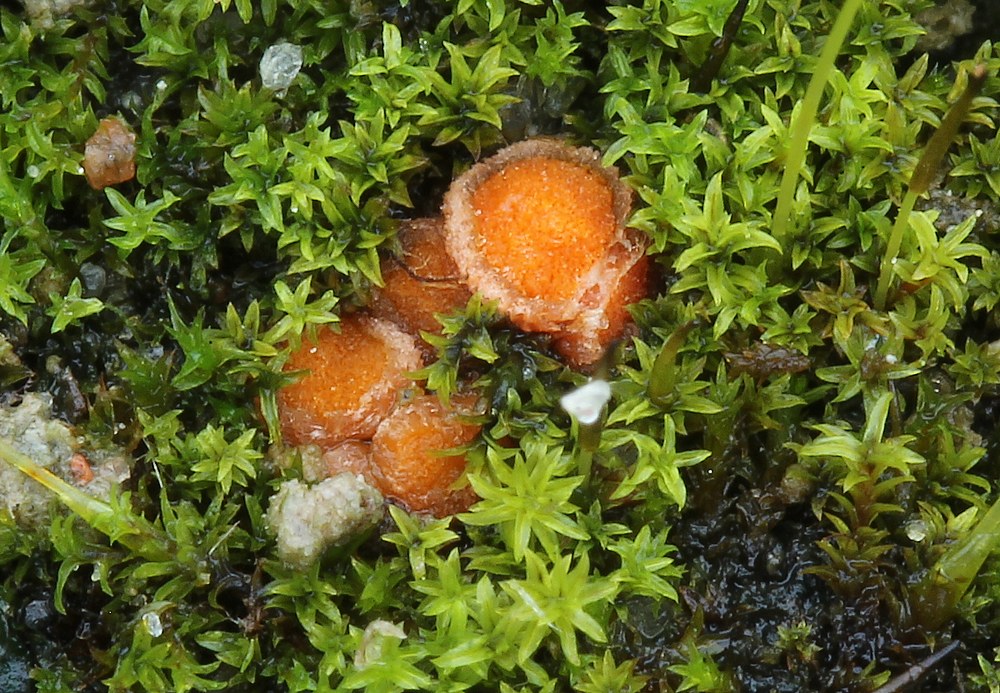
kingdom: Fungi
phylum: Ascomycota
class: Pezizomycetes
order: Pezizales
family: Pyronemataceae
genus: Lamprospora
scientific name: Lamprospora miniata
